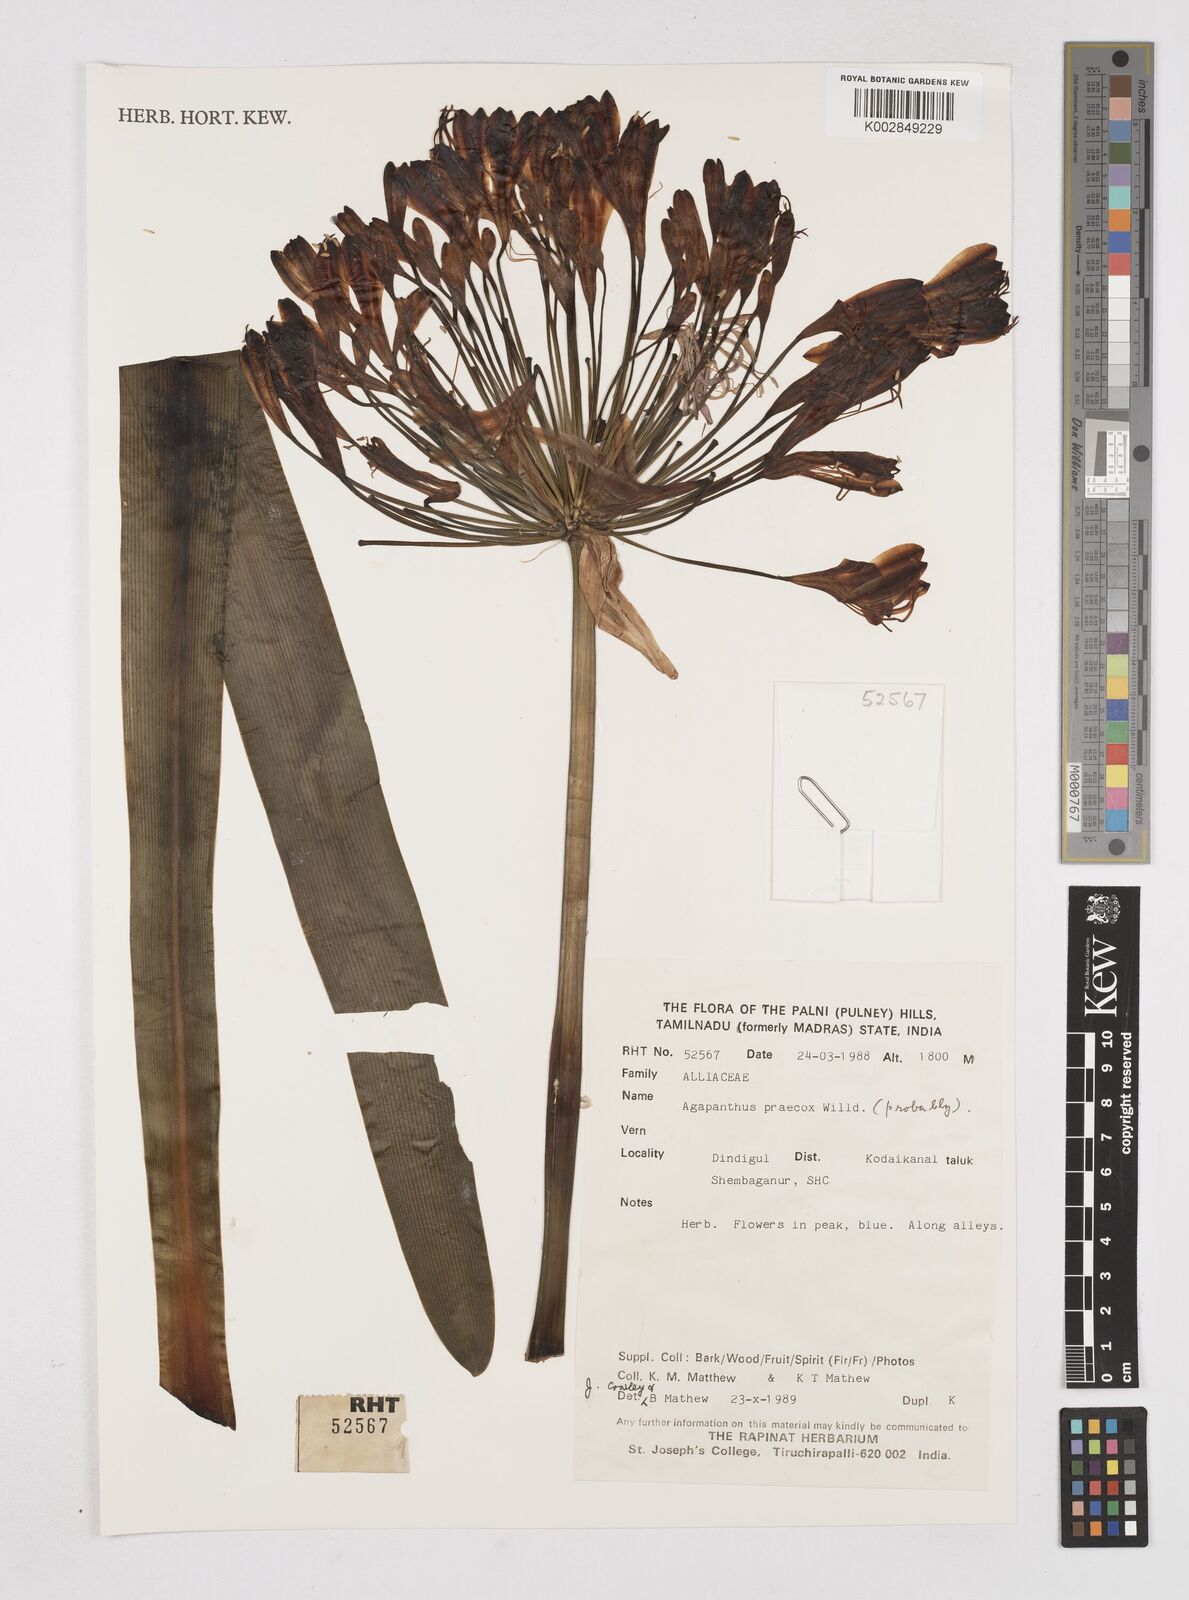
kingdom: Plantae
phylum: Tracheophyta
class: Liliopsida
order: Asparagales
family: Amaryllidaceae
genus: Agapanthus
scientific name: Agapanthus praecox
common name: African-lily
